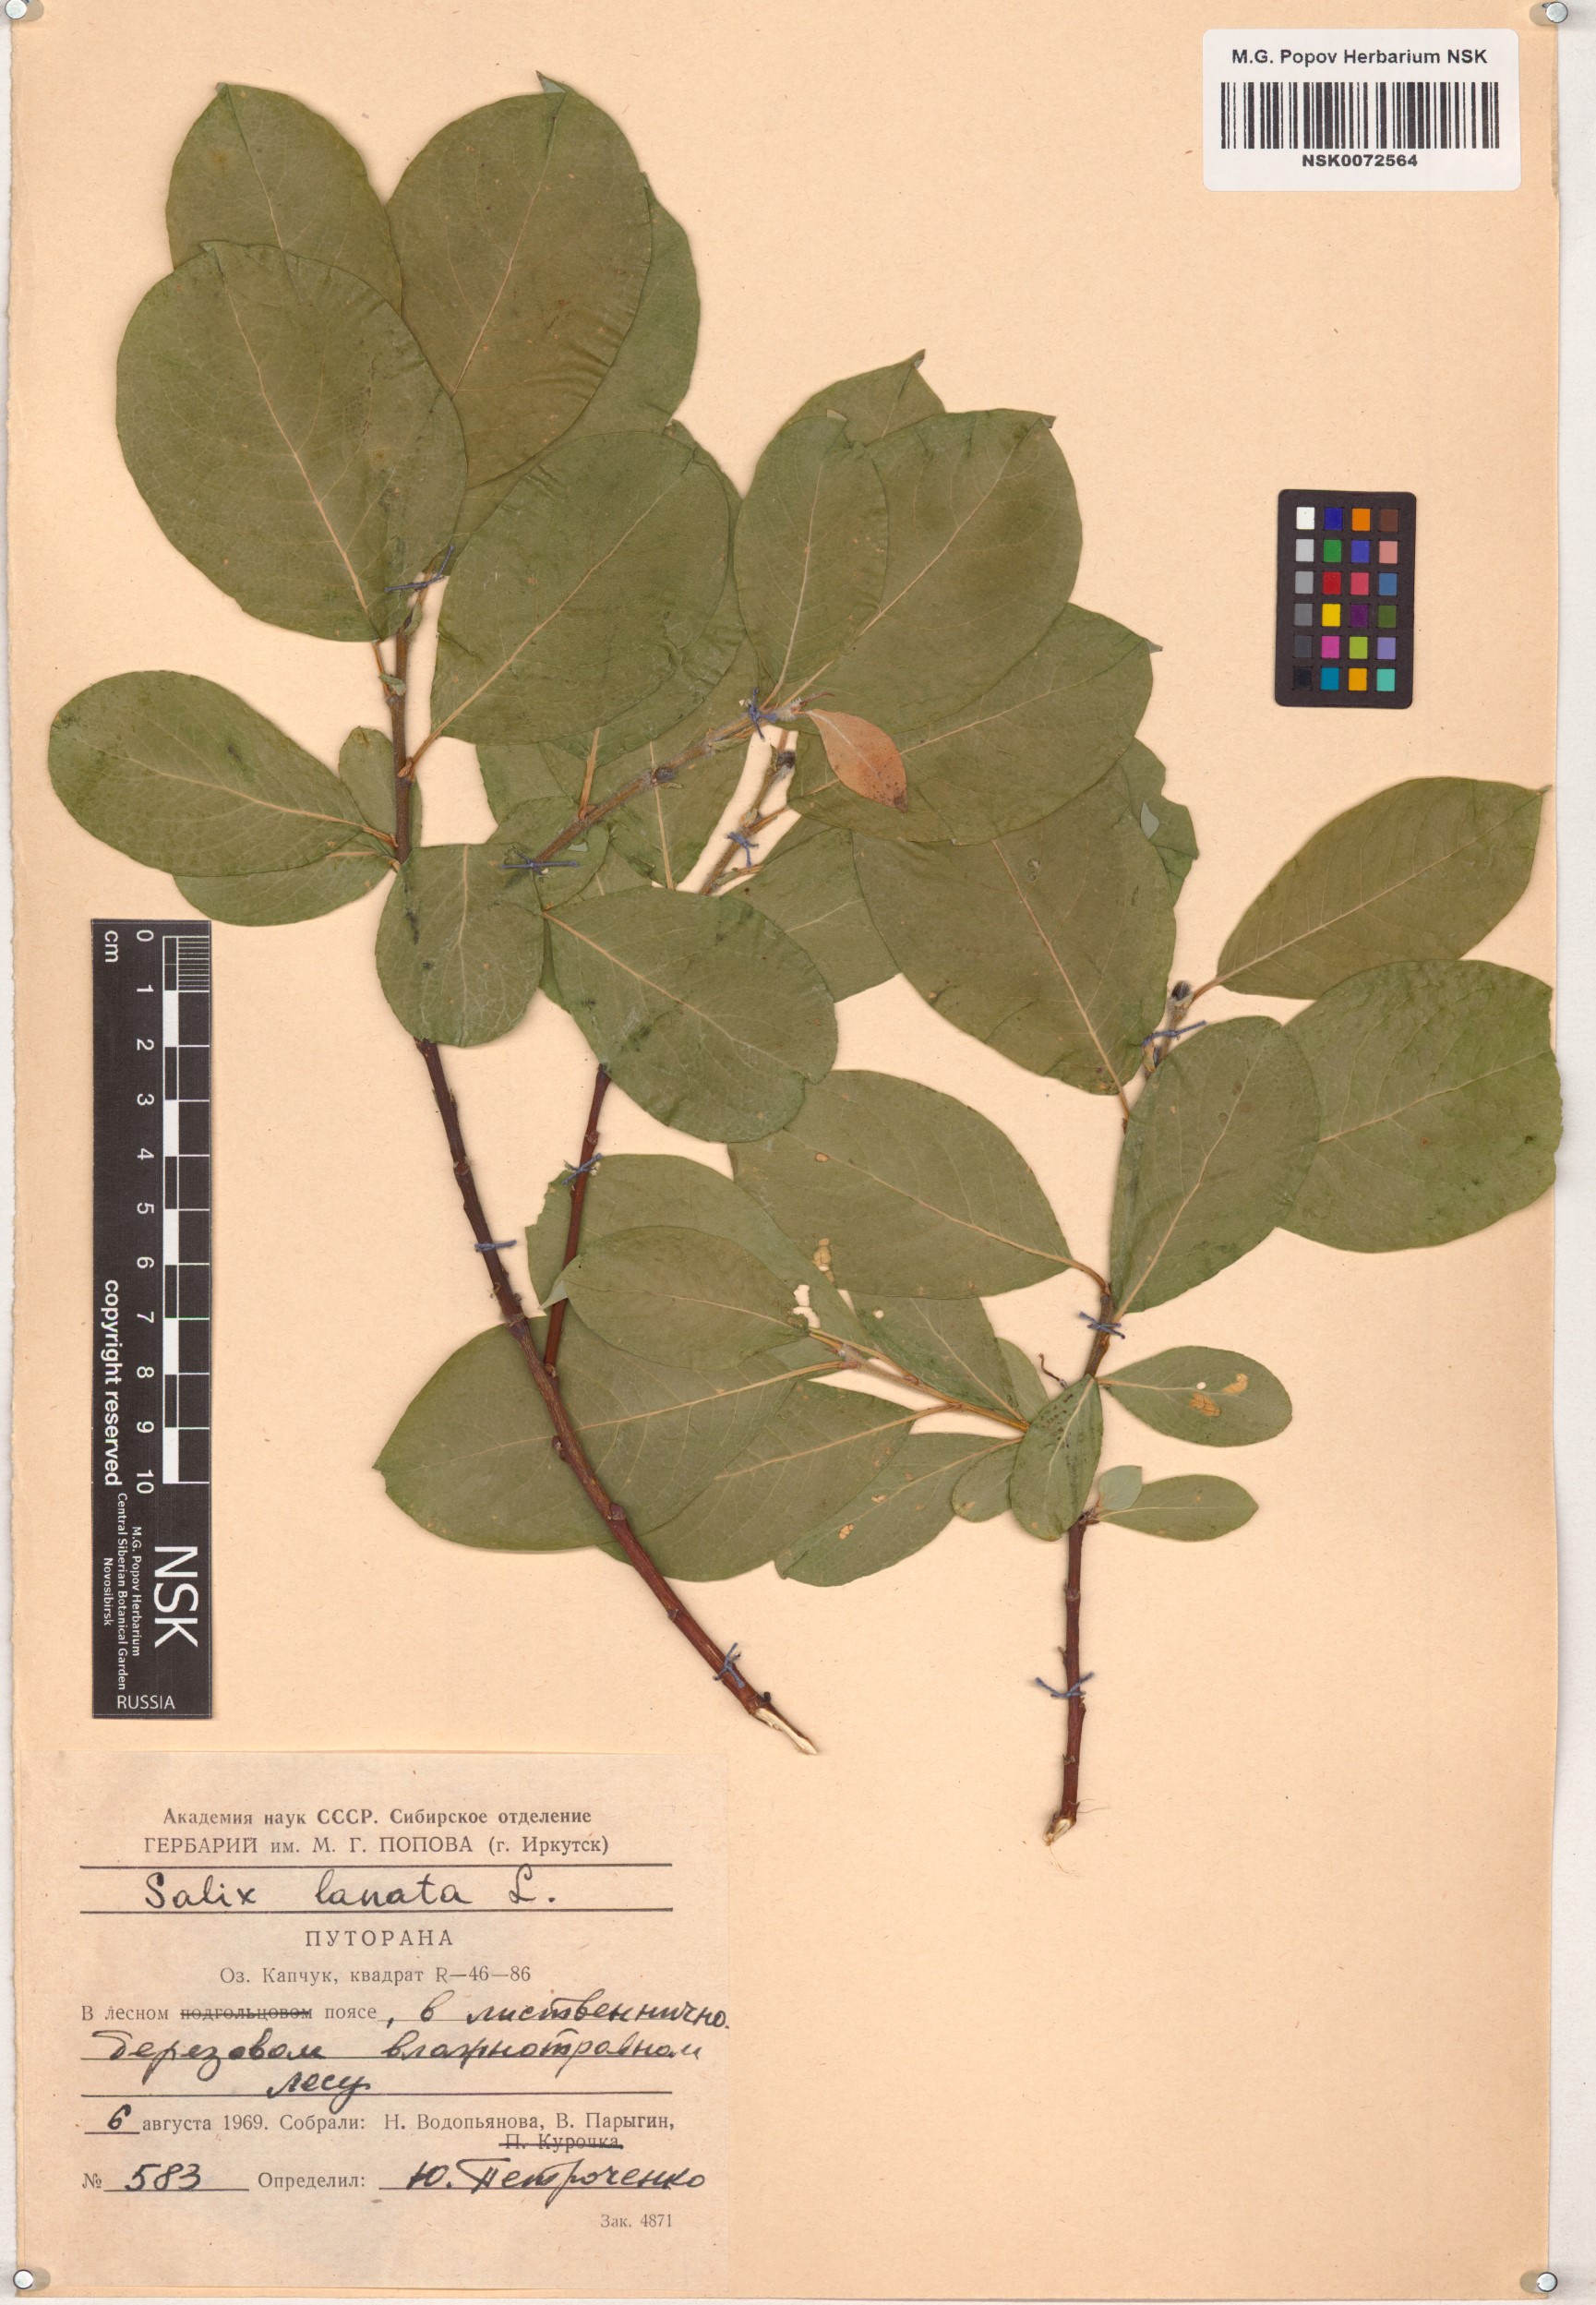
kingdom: Plantae
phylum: Tracheophyta
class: Magnoliopsida
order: Malpighiales
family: Salicaceae
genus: Salix
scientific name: Salix lanata
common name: Woolly willow
